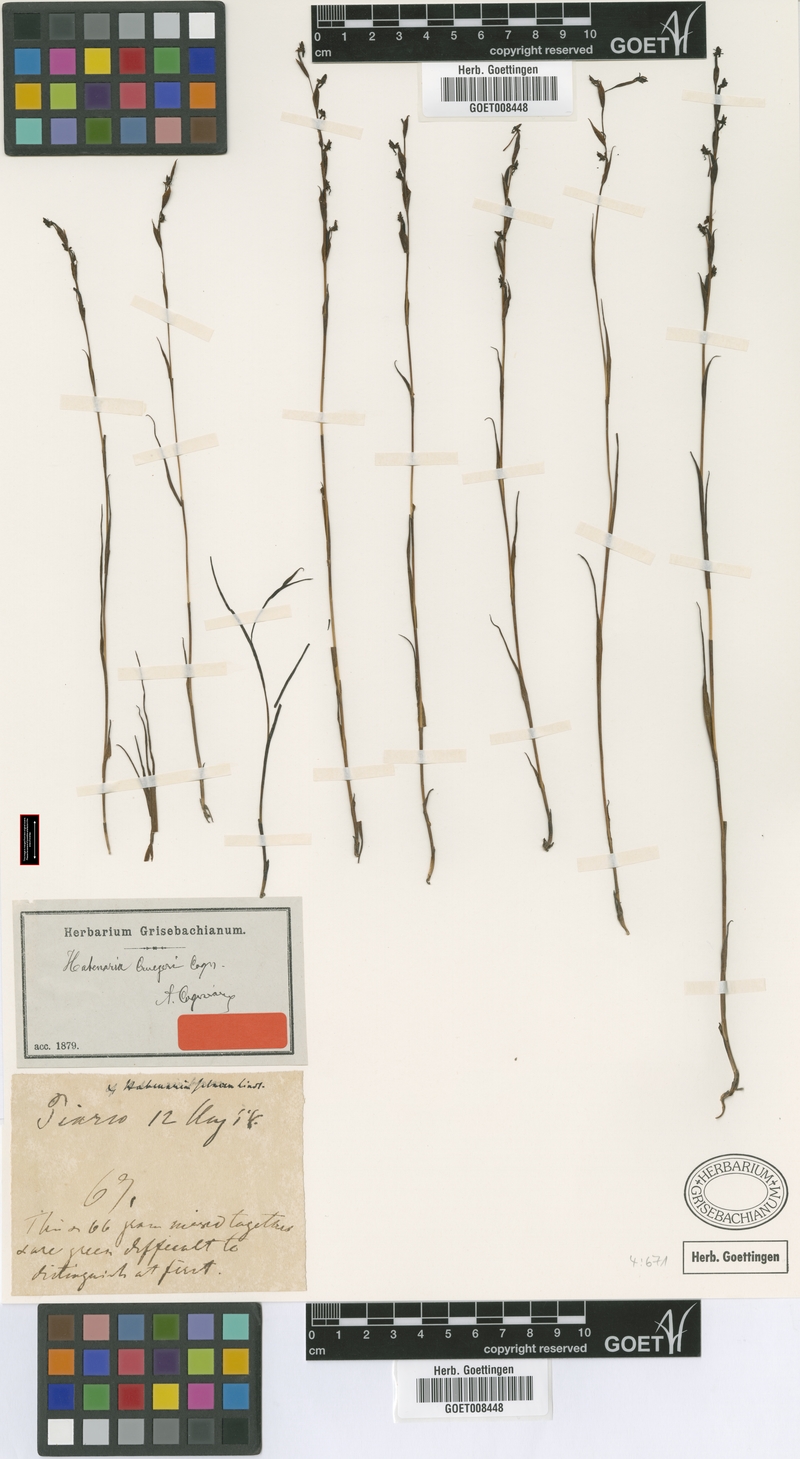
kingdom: Plantae
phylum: Tracheophyta
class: Liliopsida
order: Asparagales
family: Orchidaceae
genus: Habenaria
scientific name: Habenaria cruegeri
